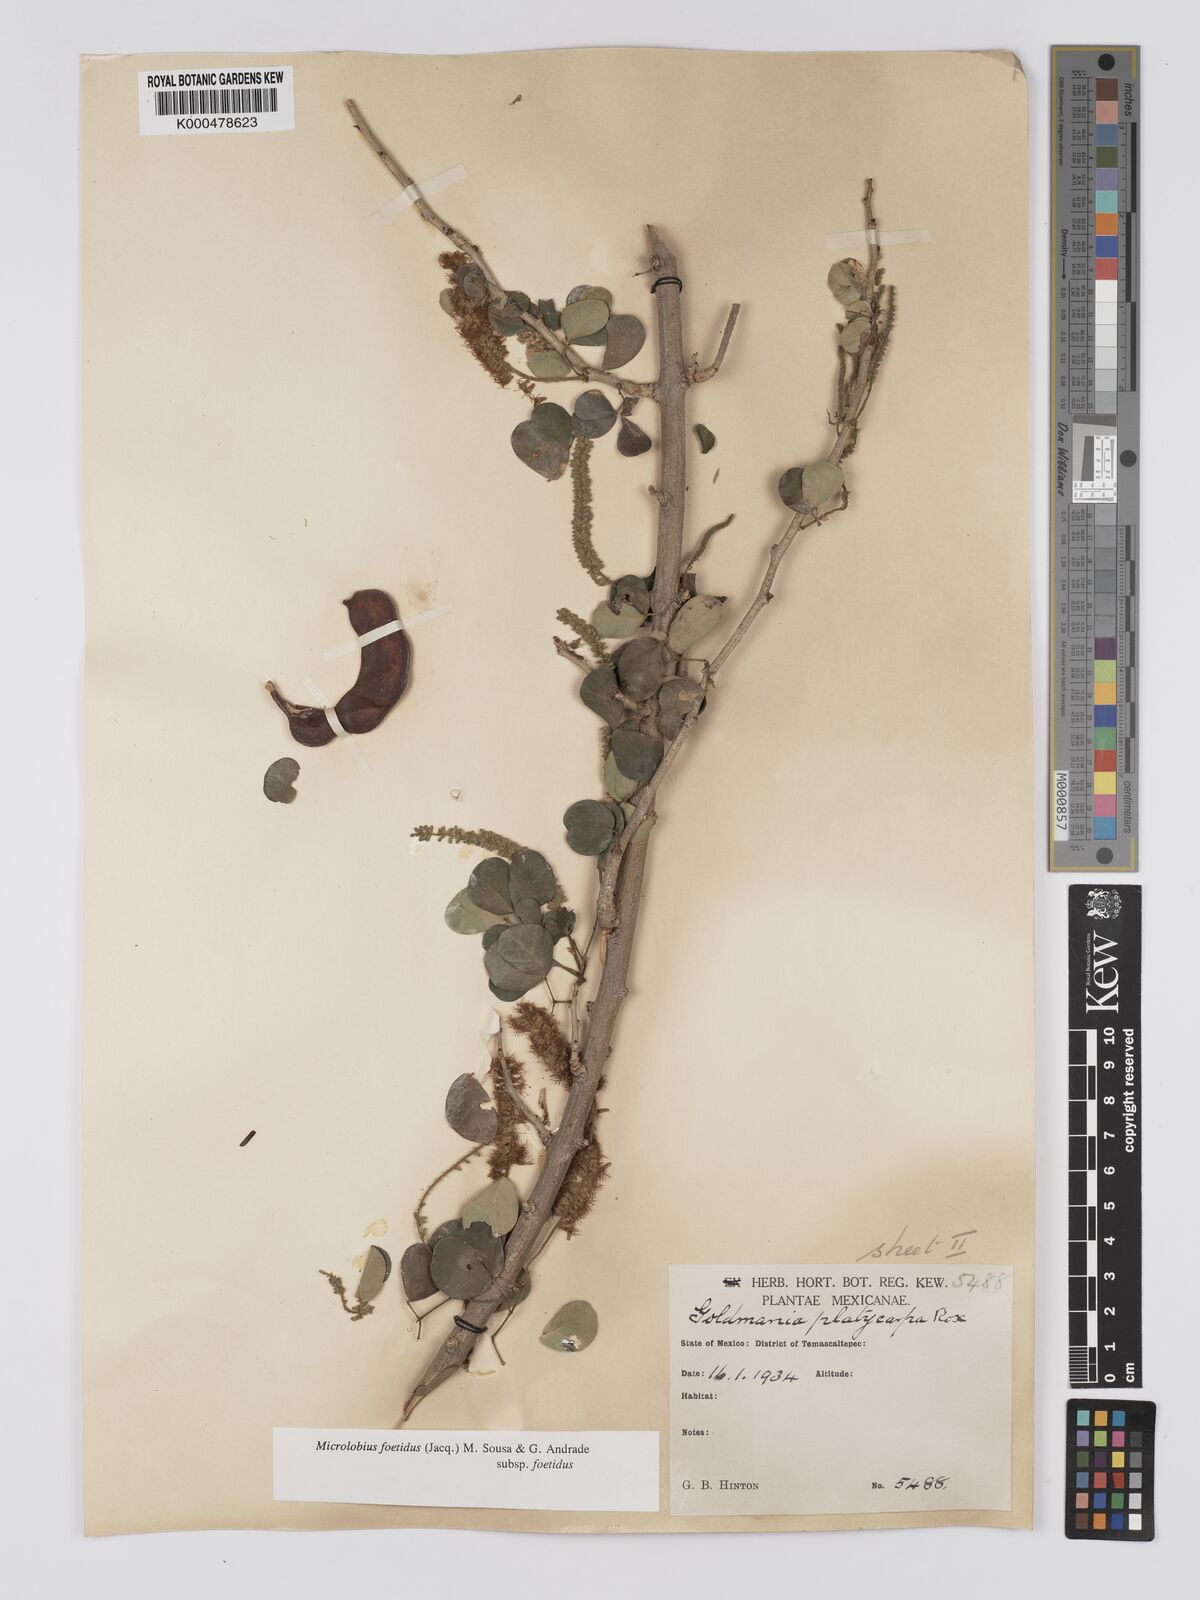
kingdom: Plantae
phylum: Tracheophyta
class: Magnoliopsida
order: Fabales
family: Fabaceae
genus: Microlobius
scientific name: Microlobius foetidus
